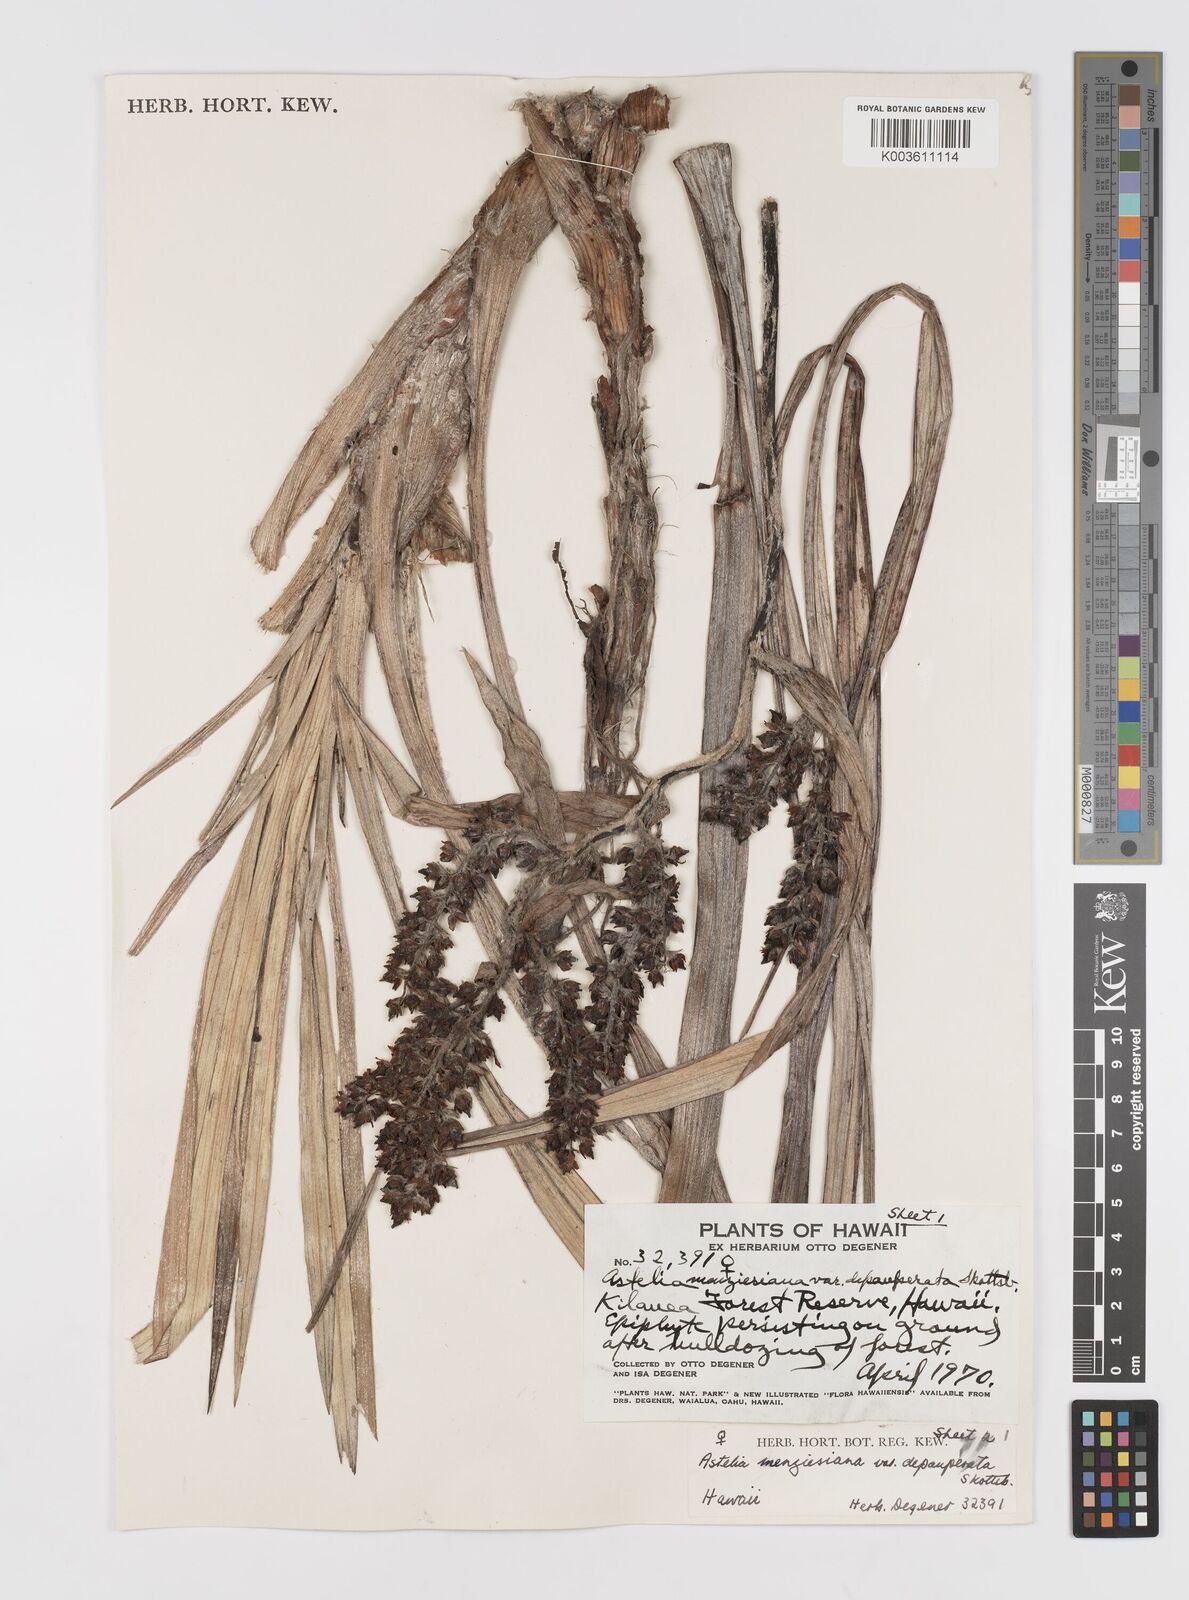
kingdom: Plantae
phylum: Tracheophyta
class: Liliopsida
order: Asparagales
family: Asteliaceae
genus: Astelia
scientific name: Astelia menziesiana
